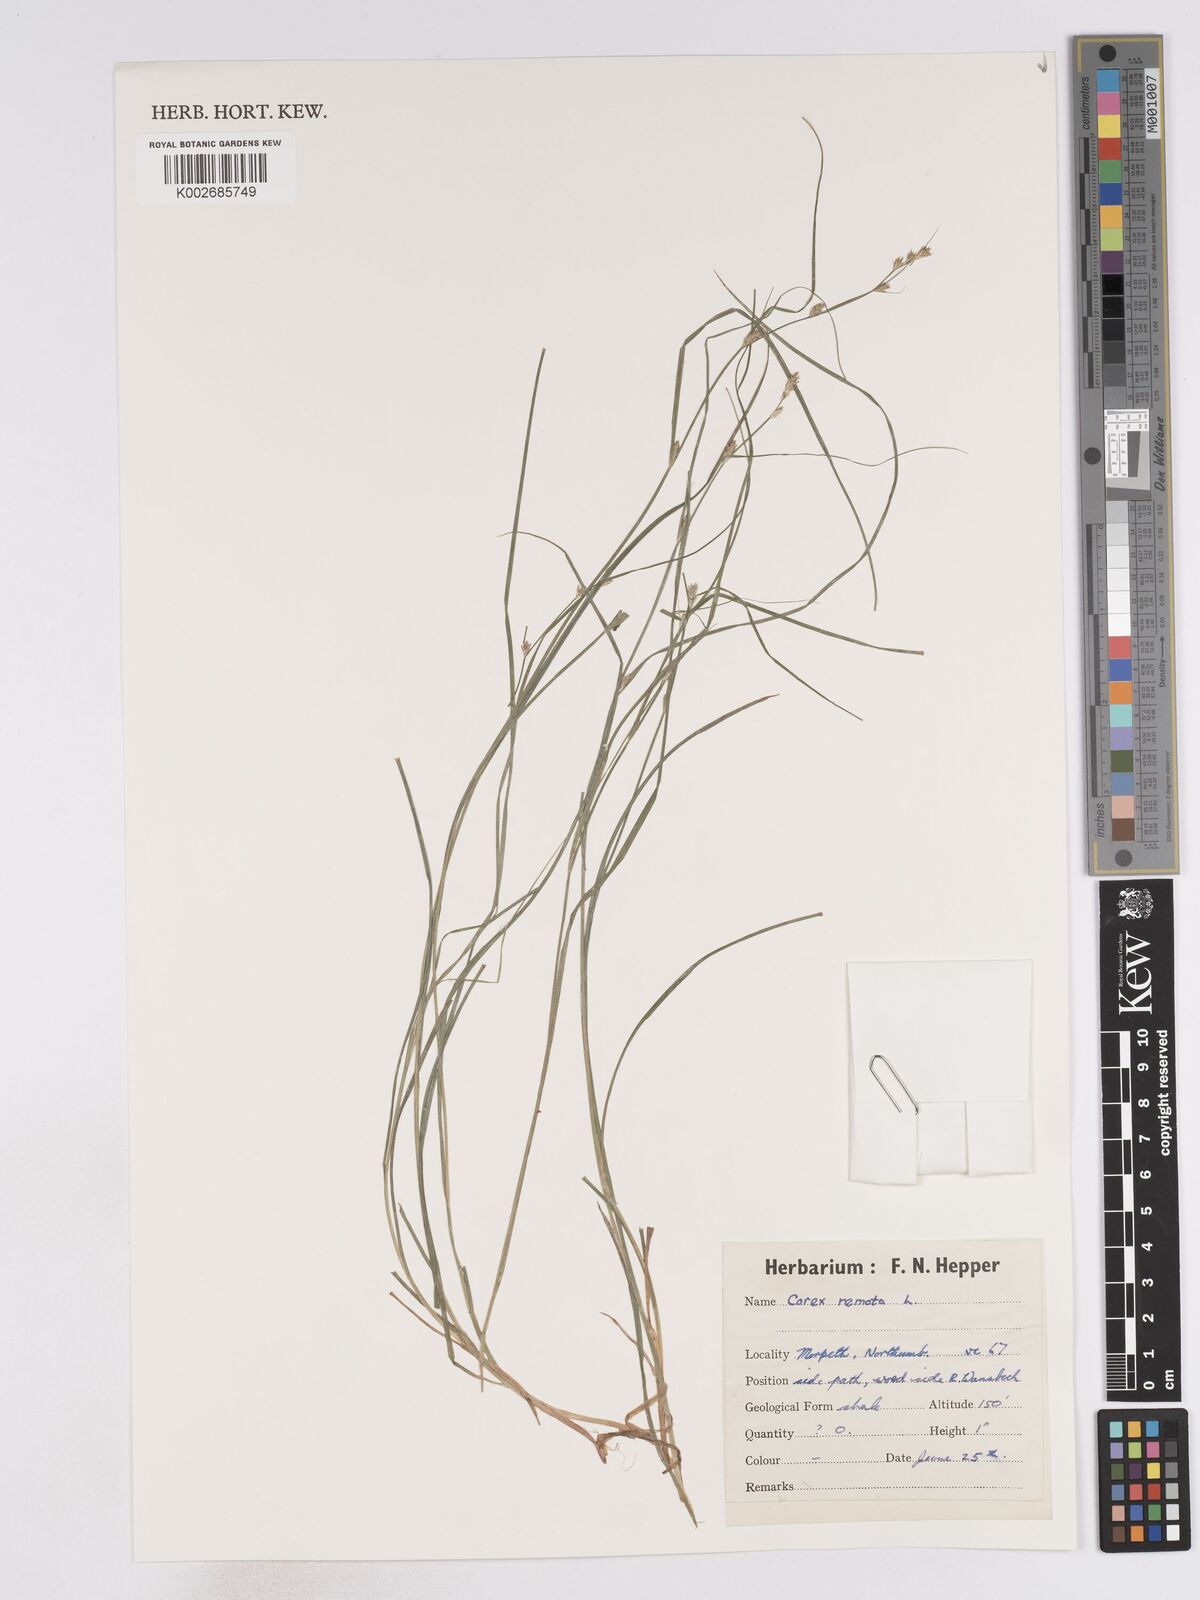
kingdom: Plantae
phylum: Tracheophyta
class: Liliopsida
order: Poales
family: Cyperaceae
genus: Carex
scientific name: Carex remota
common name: Remote sedge
